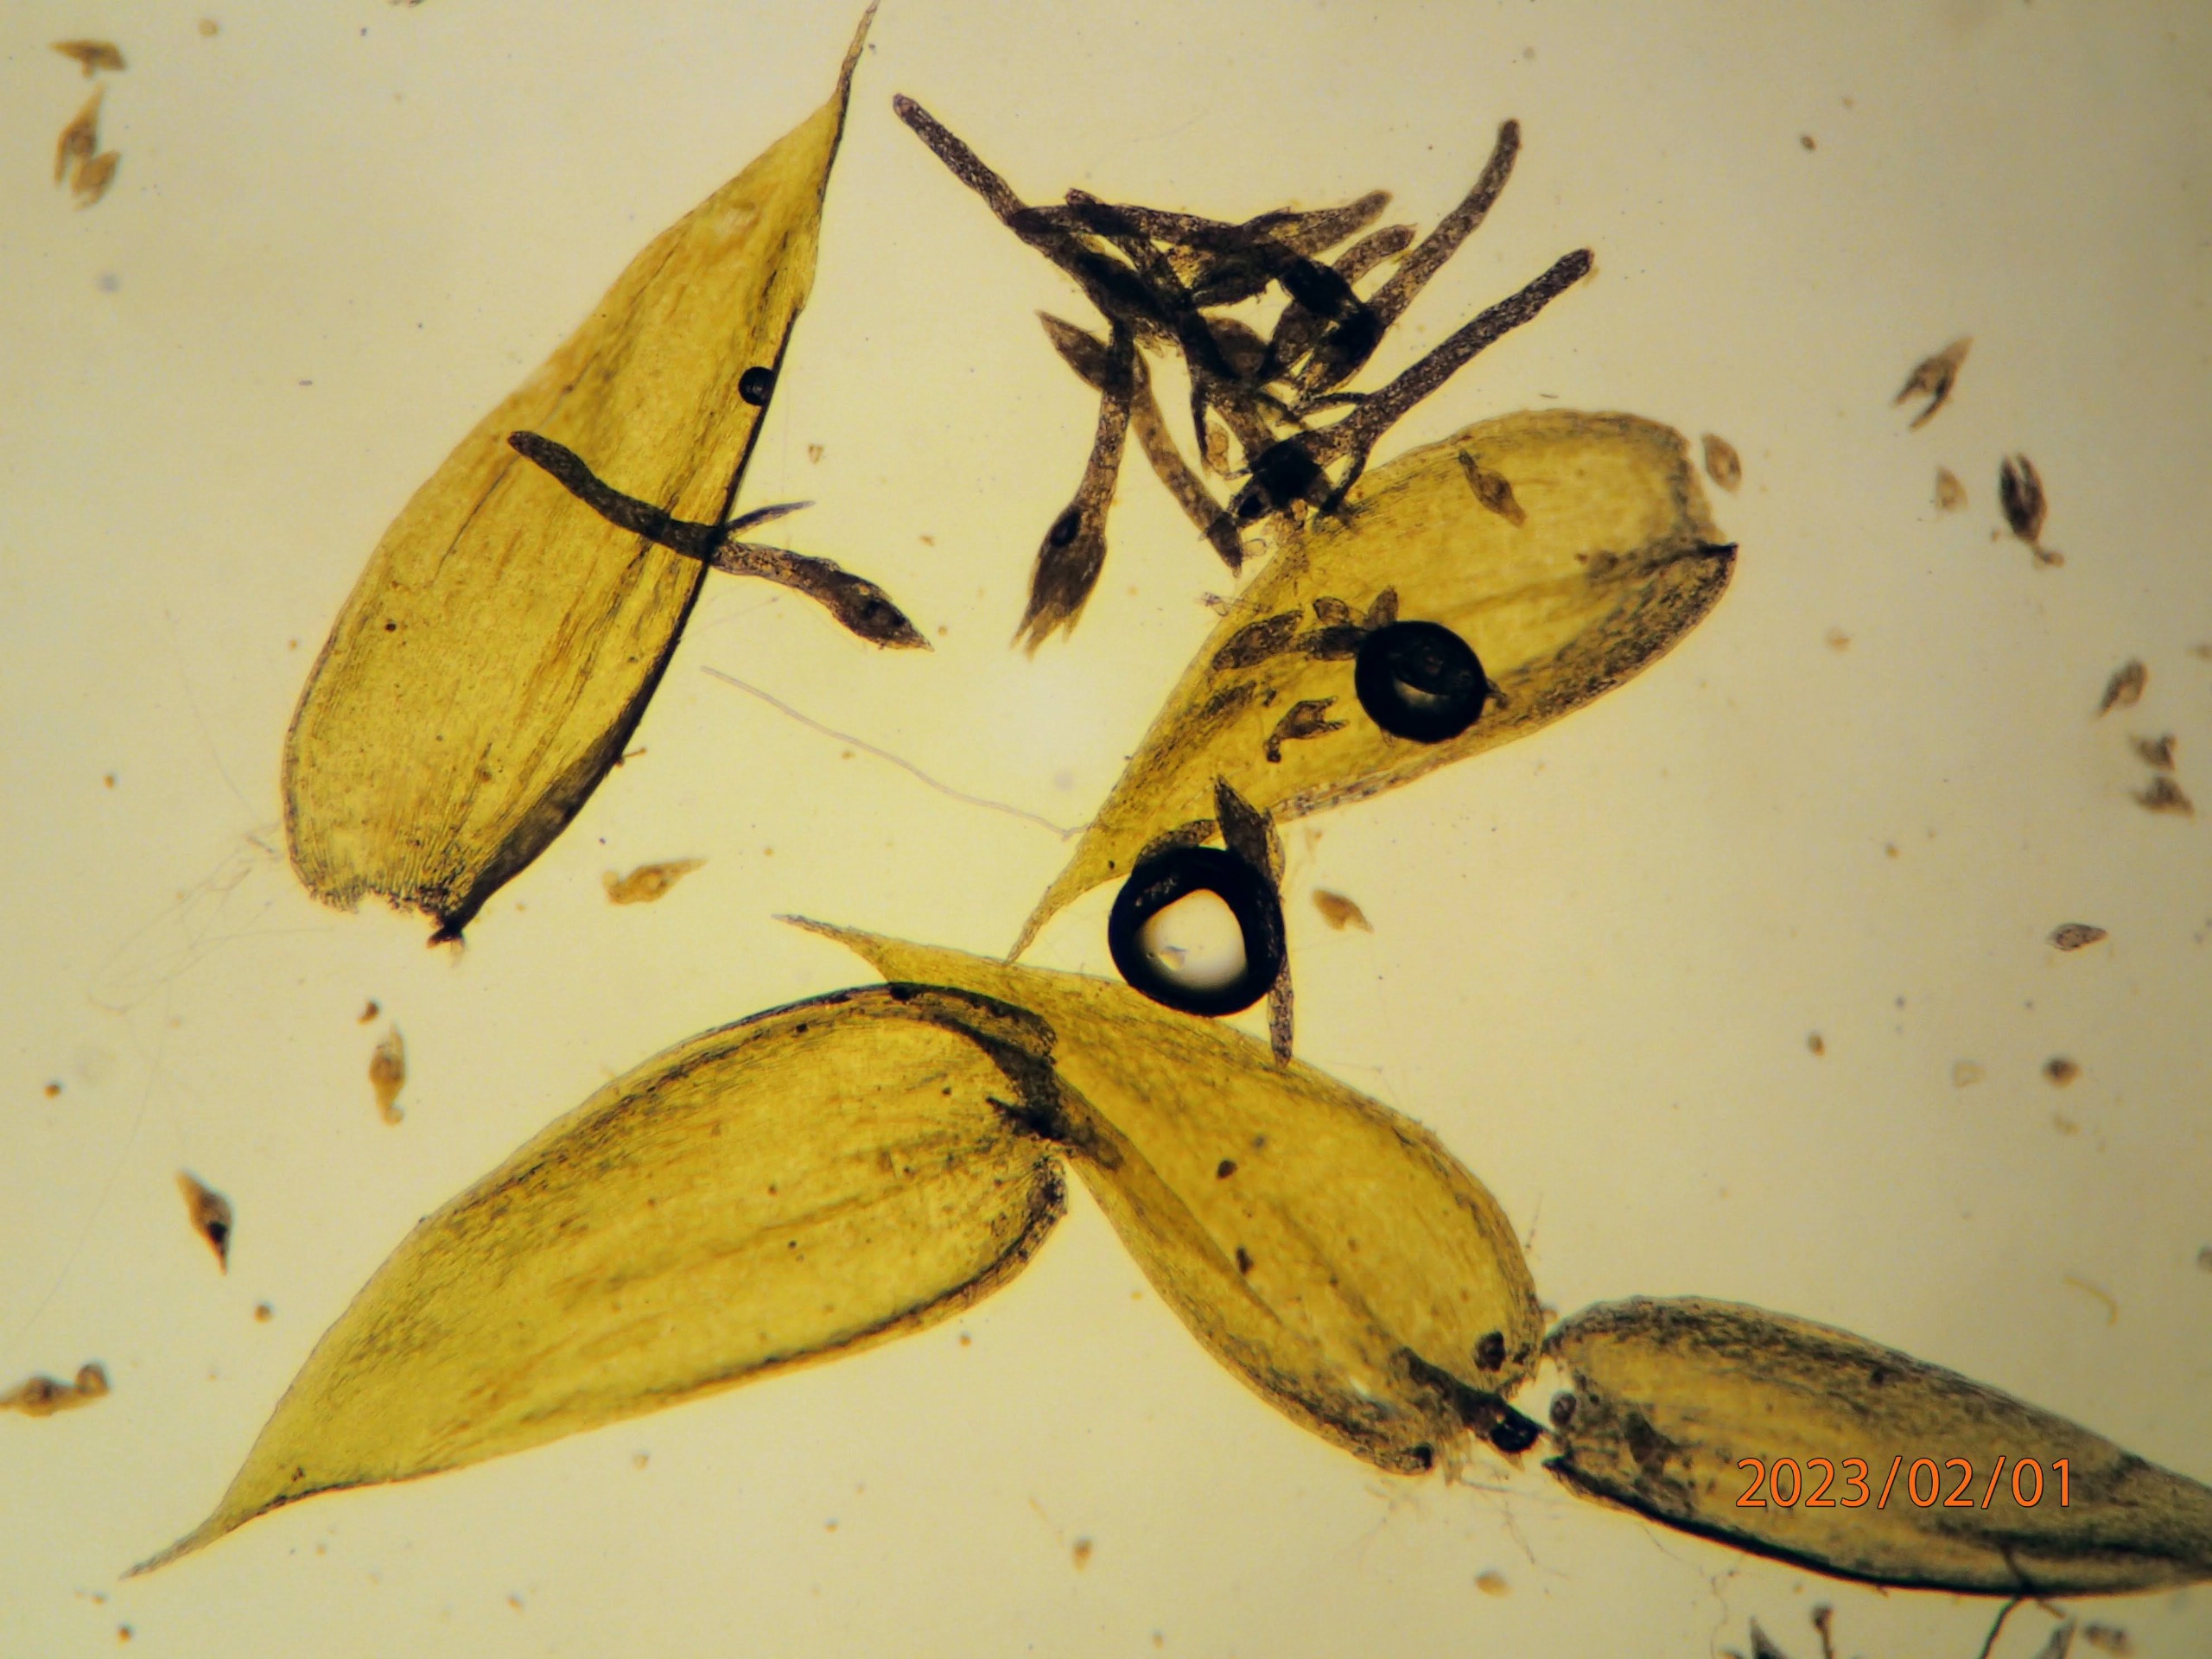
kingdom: Plantae
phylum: Bryophyta
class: Bryopsida
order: Hypnales
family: Plagiotheciaceae
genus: Pseudotaxiphyllum
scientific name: Pseudotaxiphyllum elegans
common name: Skinnende ynglegren
